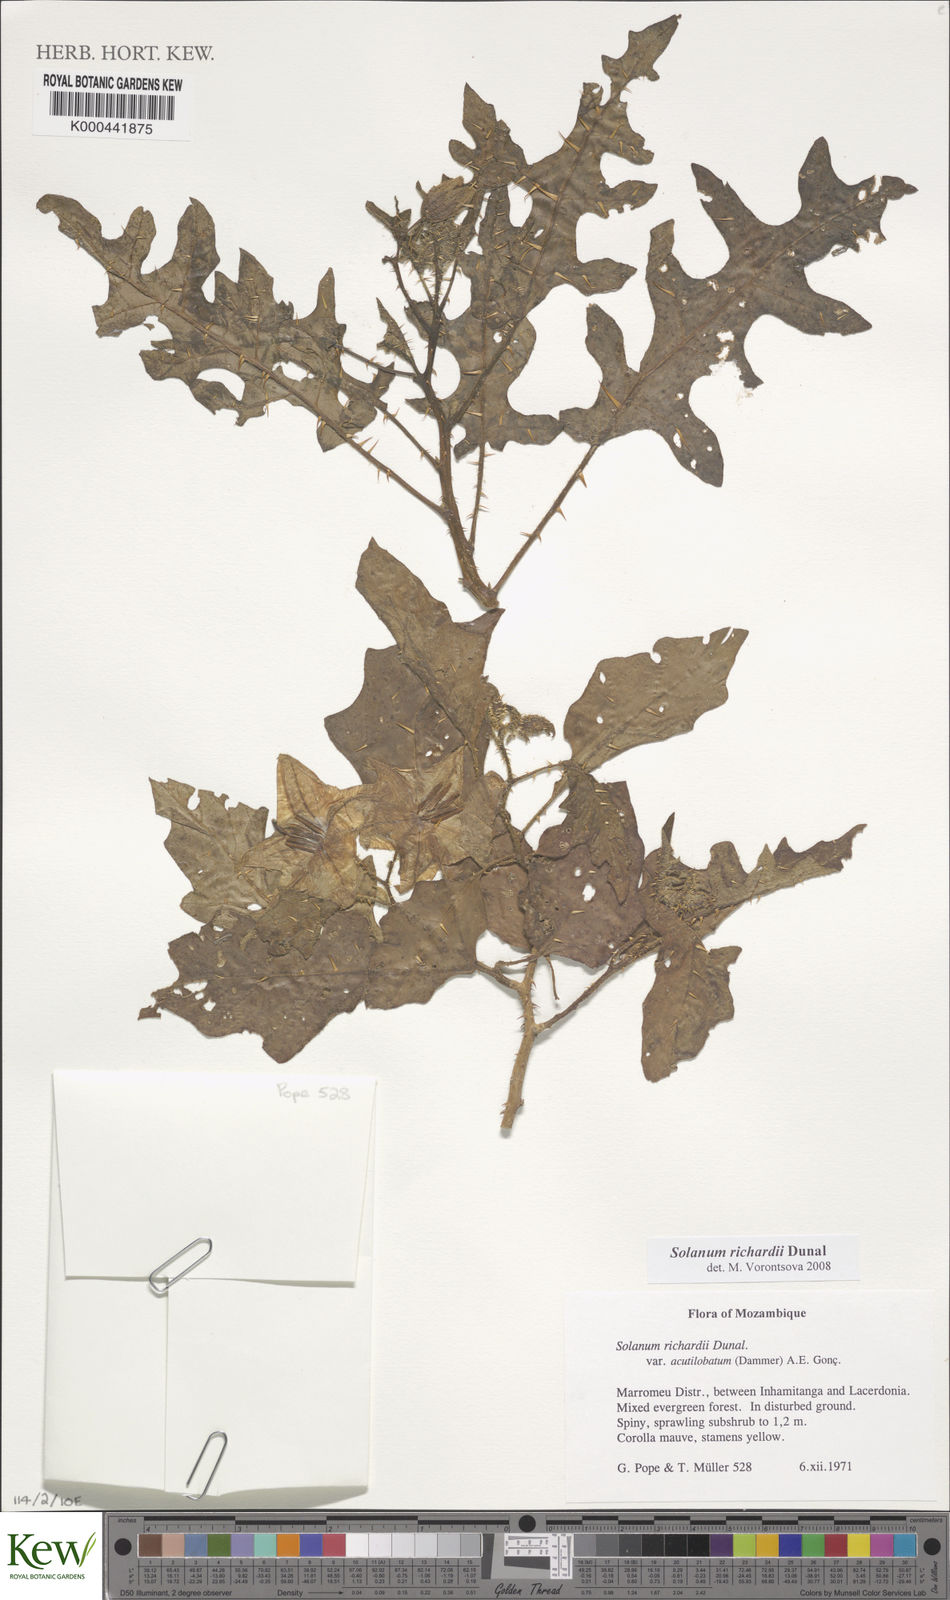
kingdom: Plantae
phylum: Tracheophyta
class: Magnoliopsida
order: Solanales
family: Solanaceae
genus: Solanum
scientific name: Solanum richardii
